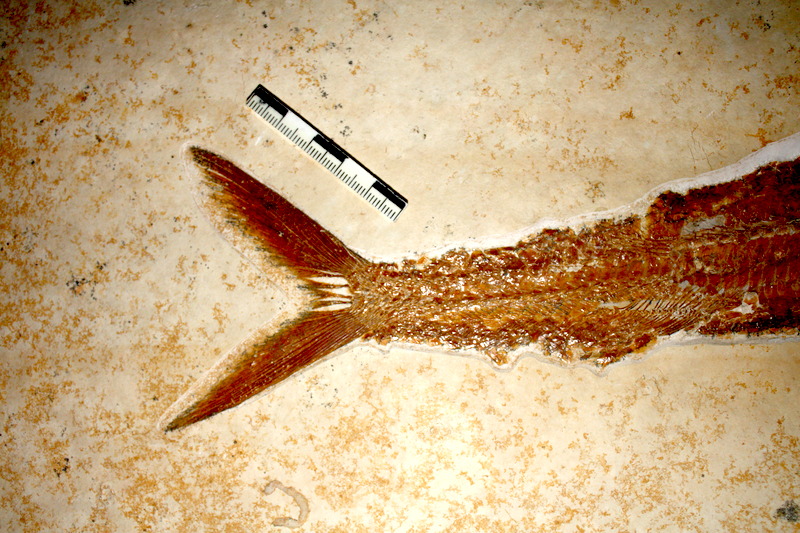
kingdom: Animalia
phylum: Chordata
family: Aspidorhynchidae
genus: Aspidorhynchus
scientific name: Aspidorhynchus acutirostris
